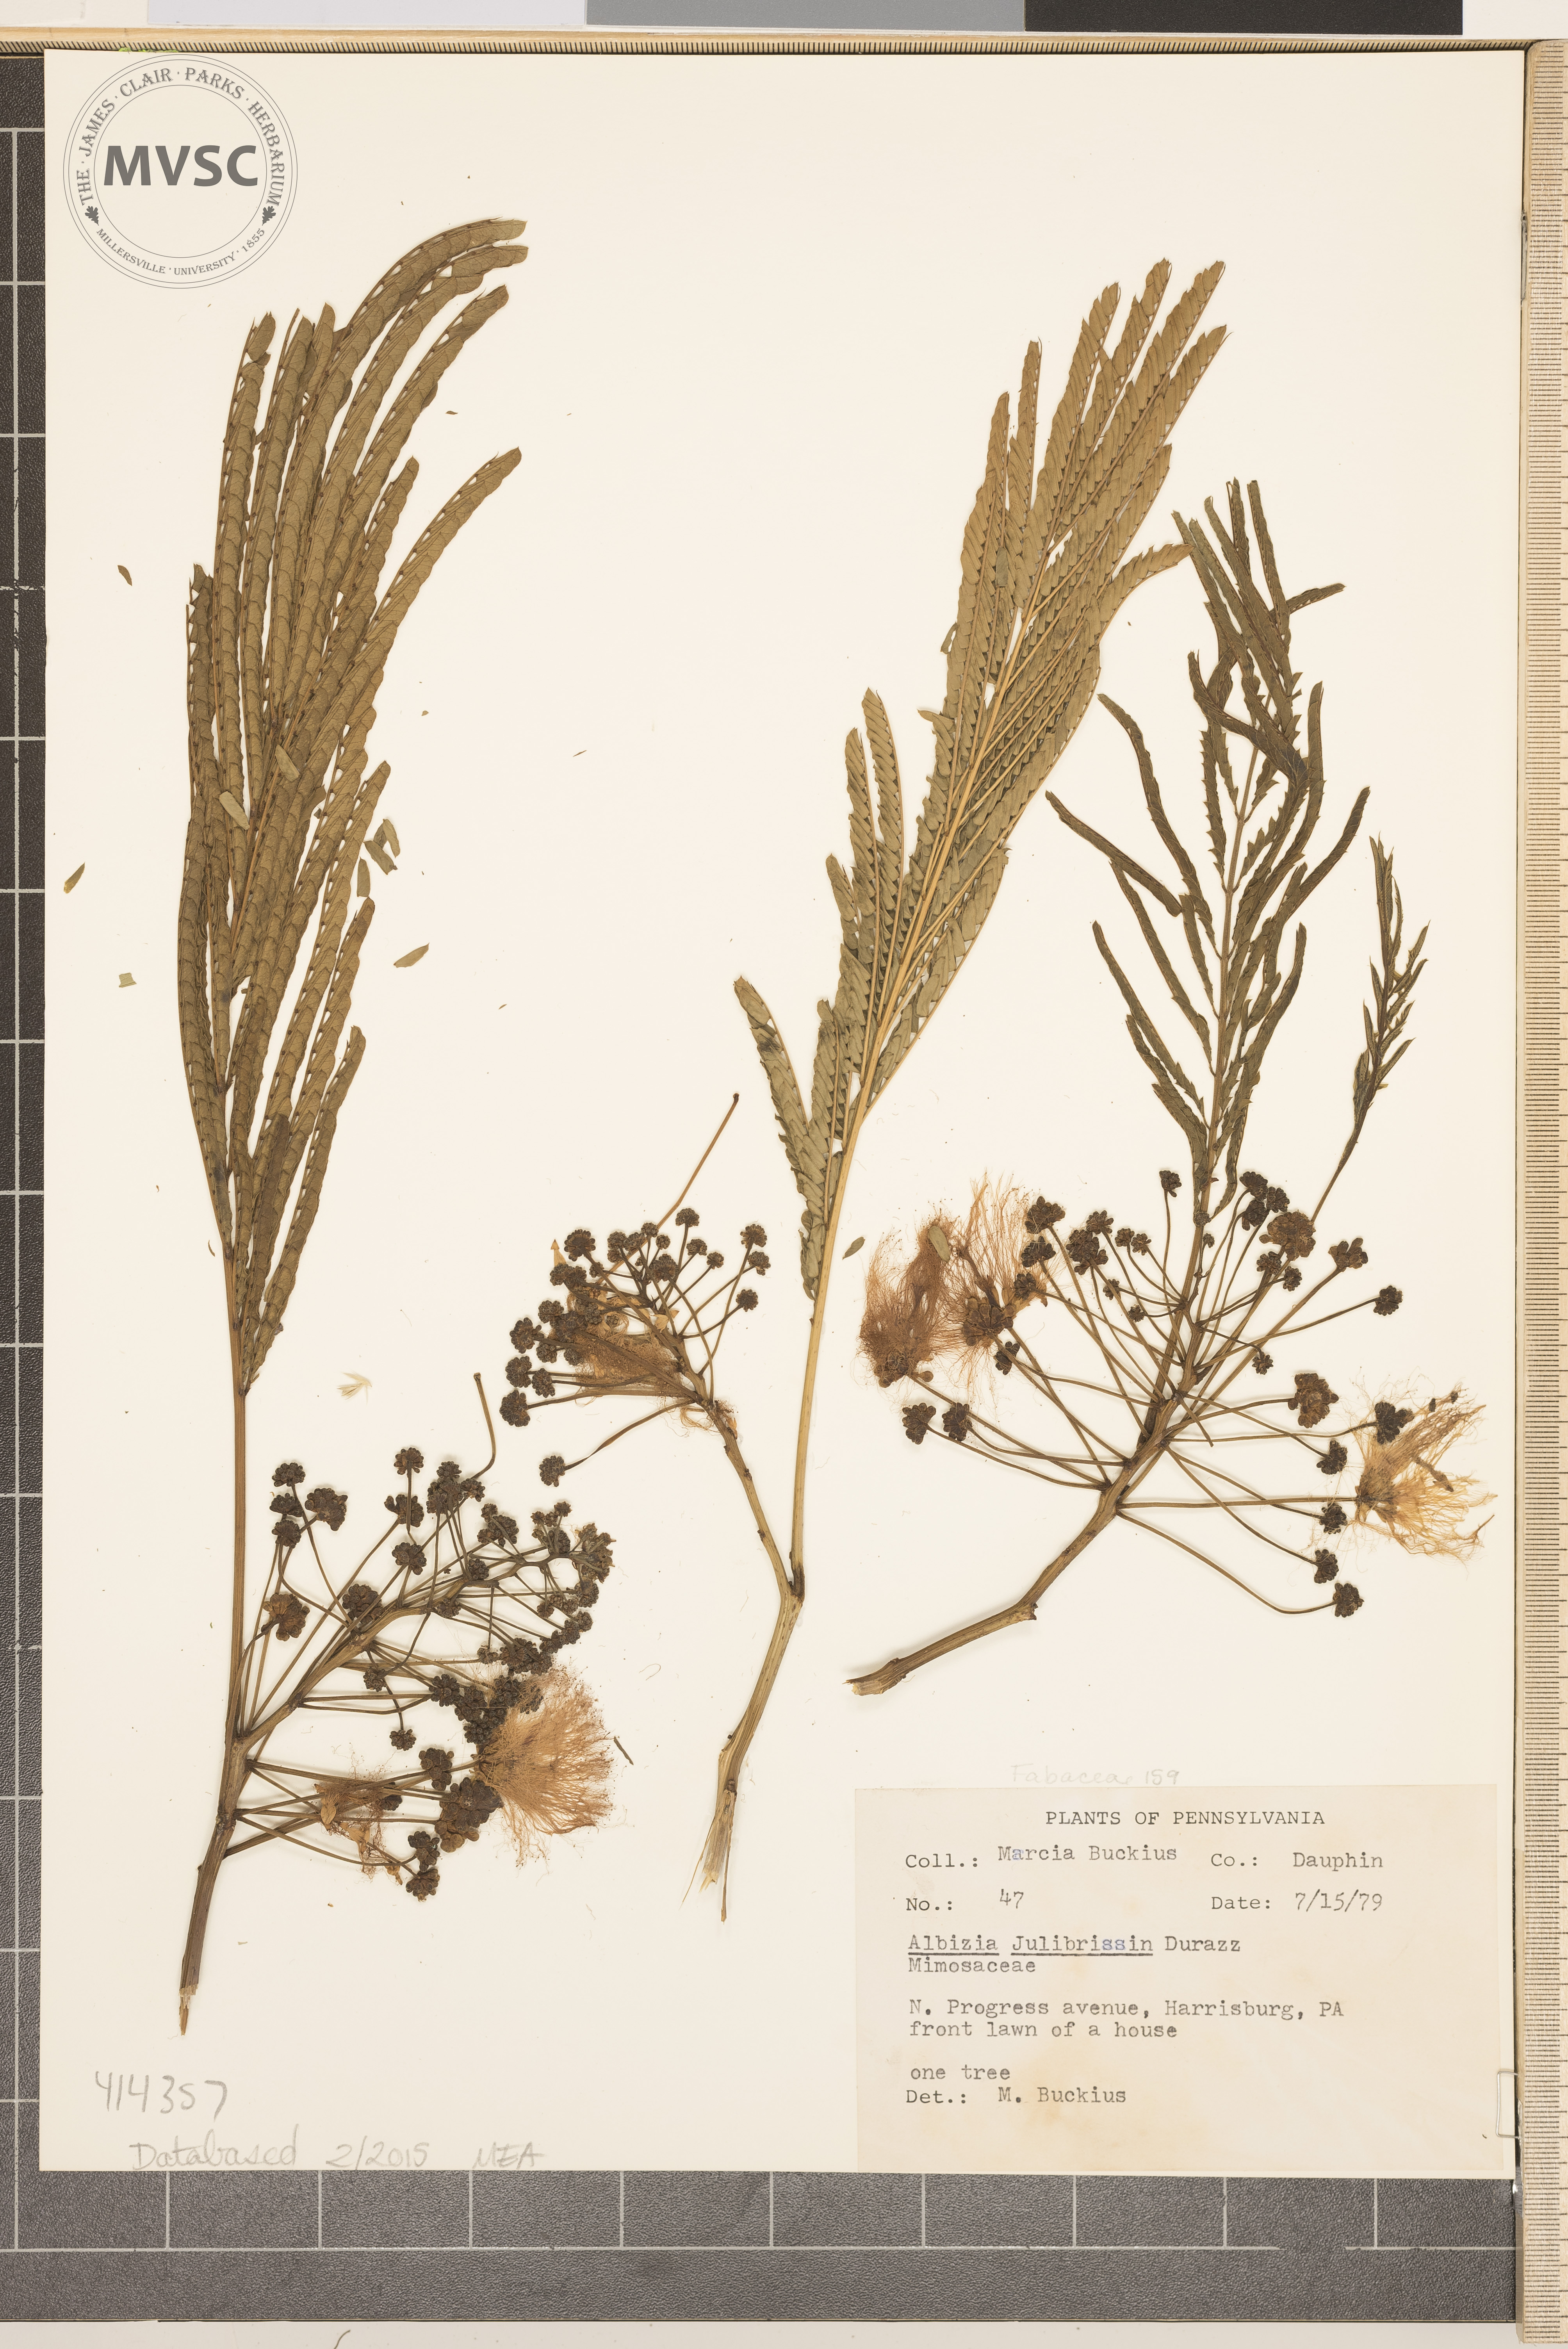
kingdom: Plantae
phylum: Tracheophyta
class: Magnoliopsida
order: Fabales
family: Fabaceae
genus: Albizia
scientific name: Albizia julibrissin
